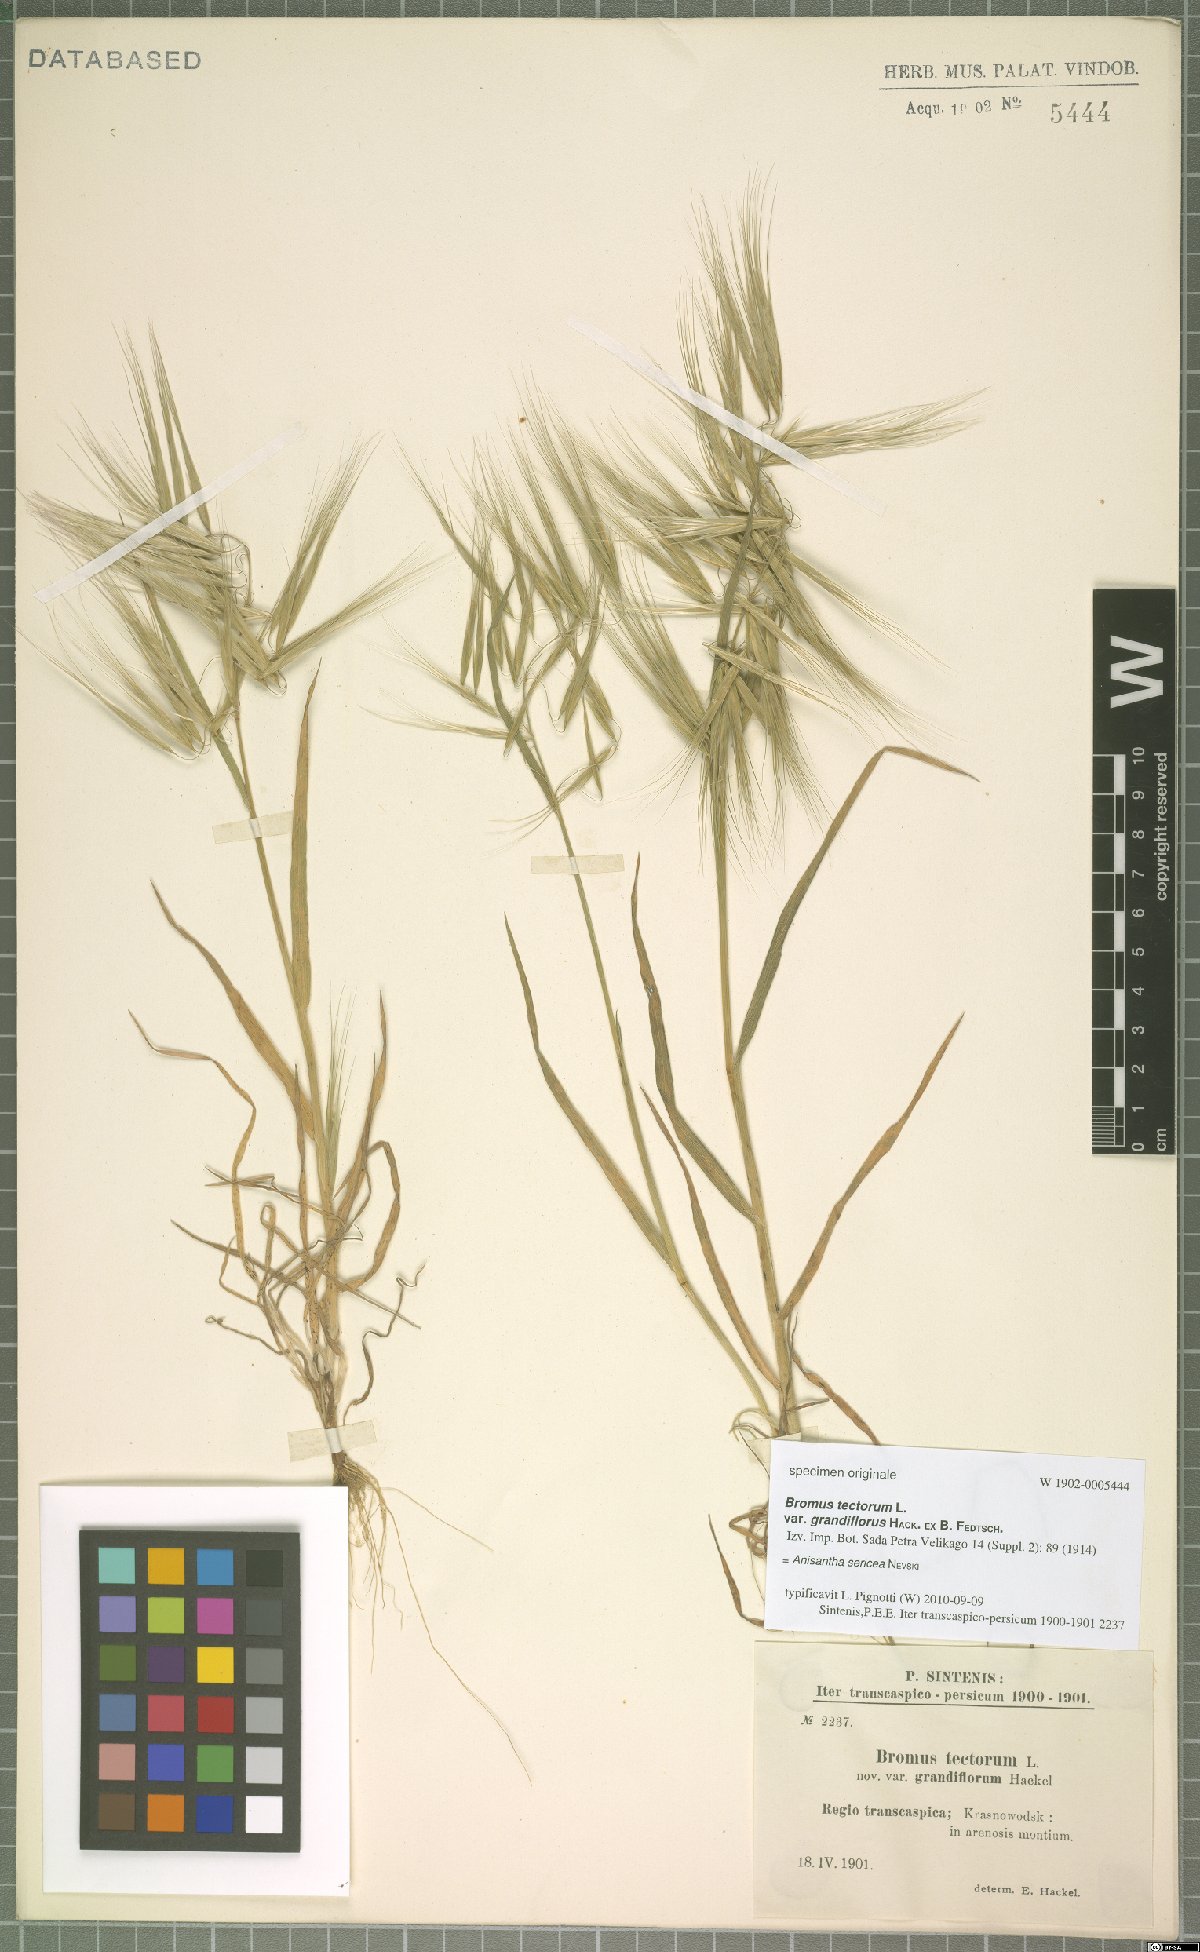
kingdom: Plantae
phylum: Tracheophyta
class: Liliopsida
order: Poales
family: Poaceae
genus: Bromus
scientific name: Bromus moeszii
